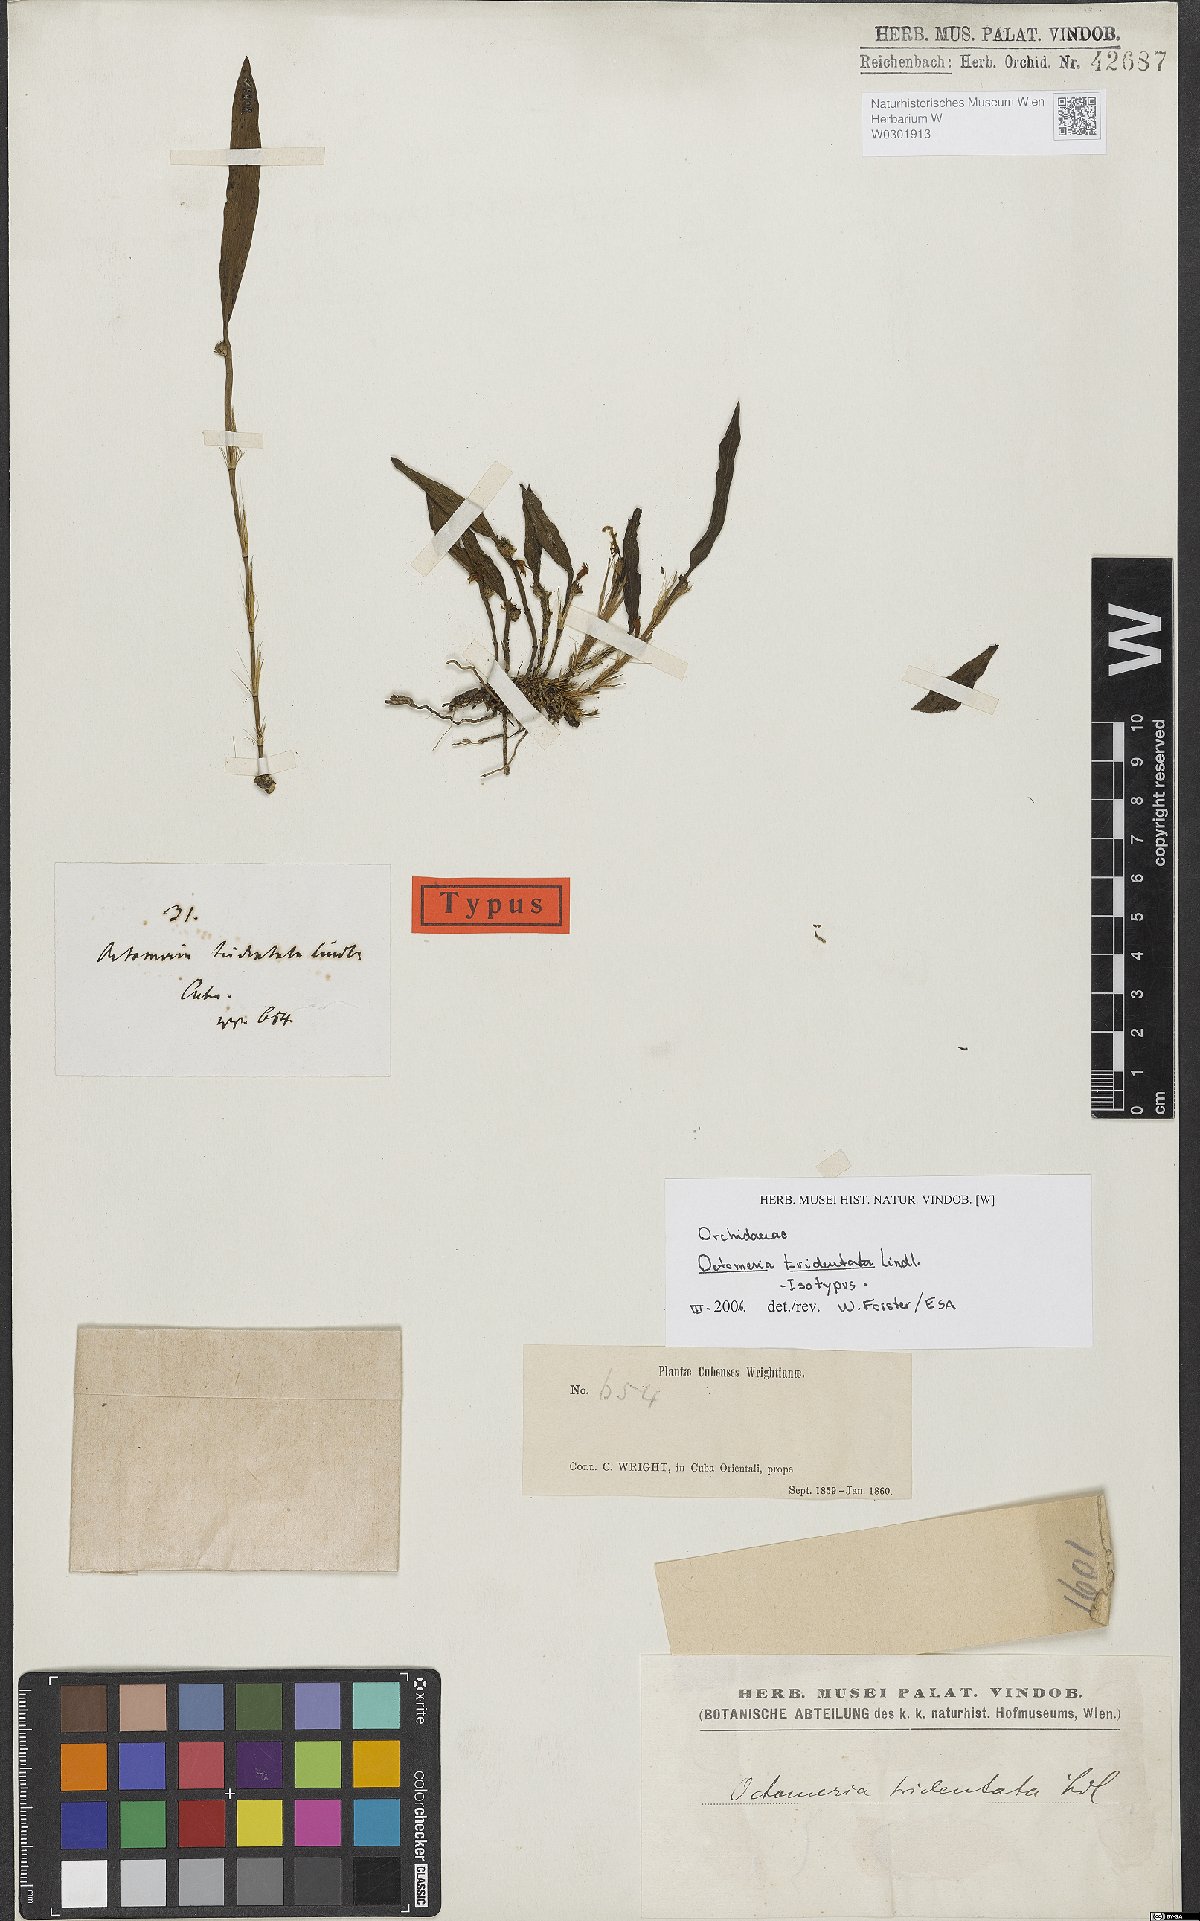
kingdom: Plantae
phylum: Tracheophyta
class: Liliopsida
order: Asparagales
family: Orchidaceae
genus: Octomeria
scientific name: Octomeria tridentata
